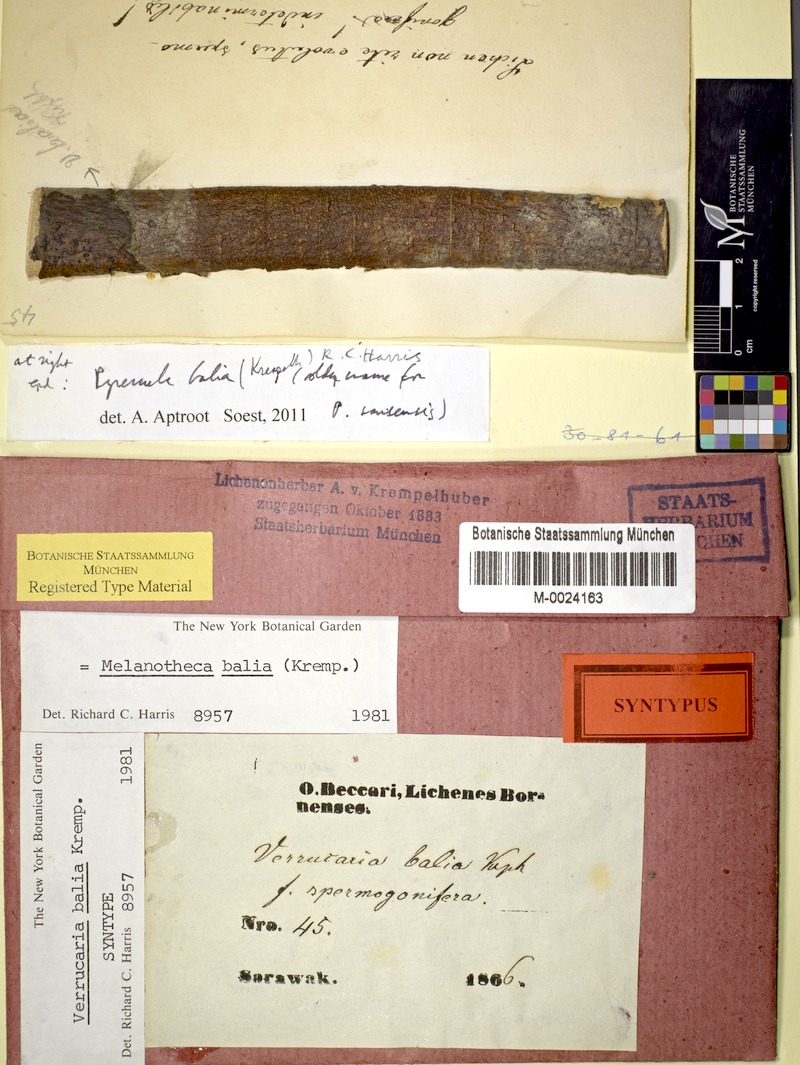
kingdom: Fungi
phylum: Ascomycota
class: Eurotiomycetes
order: Pyrenulales
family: Pyrenulaceae
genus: Pyrenula
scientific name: Pyrenula balia
